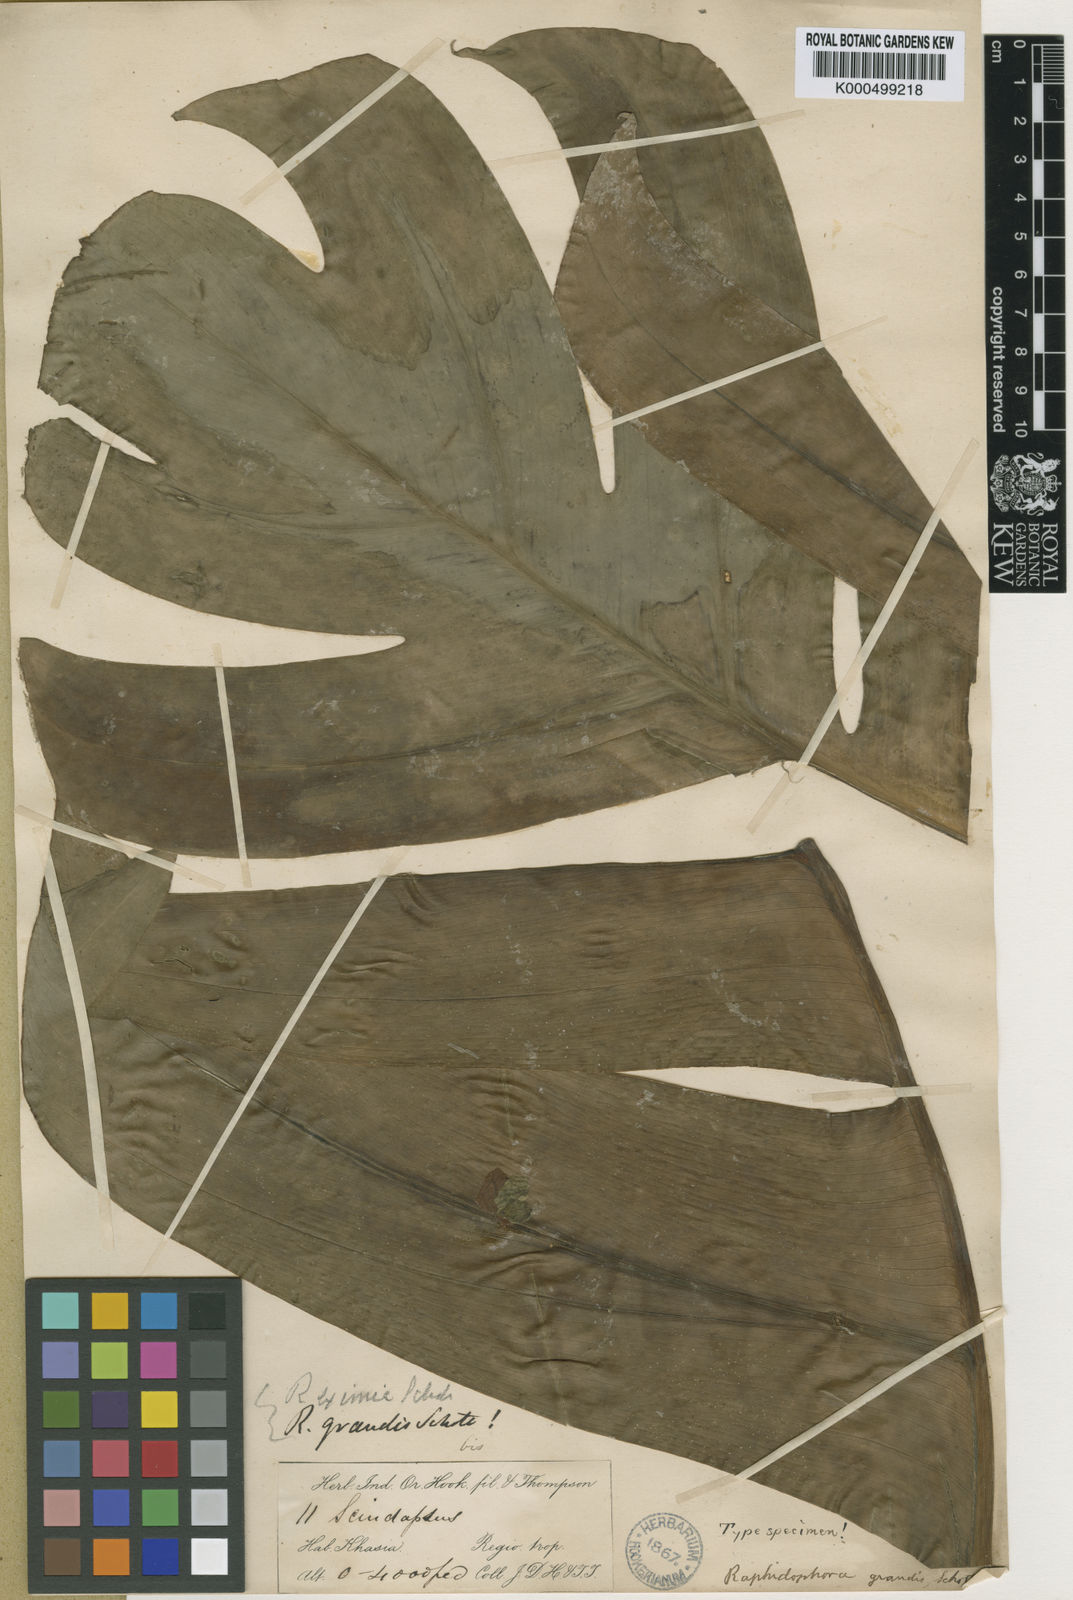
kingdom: Plantae
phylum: Tracheophyta
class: Liliopsida
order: Alismatales
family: Araceae
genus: Rhaphidophora
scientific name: Rhaphidophora decursiva
